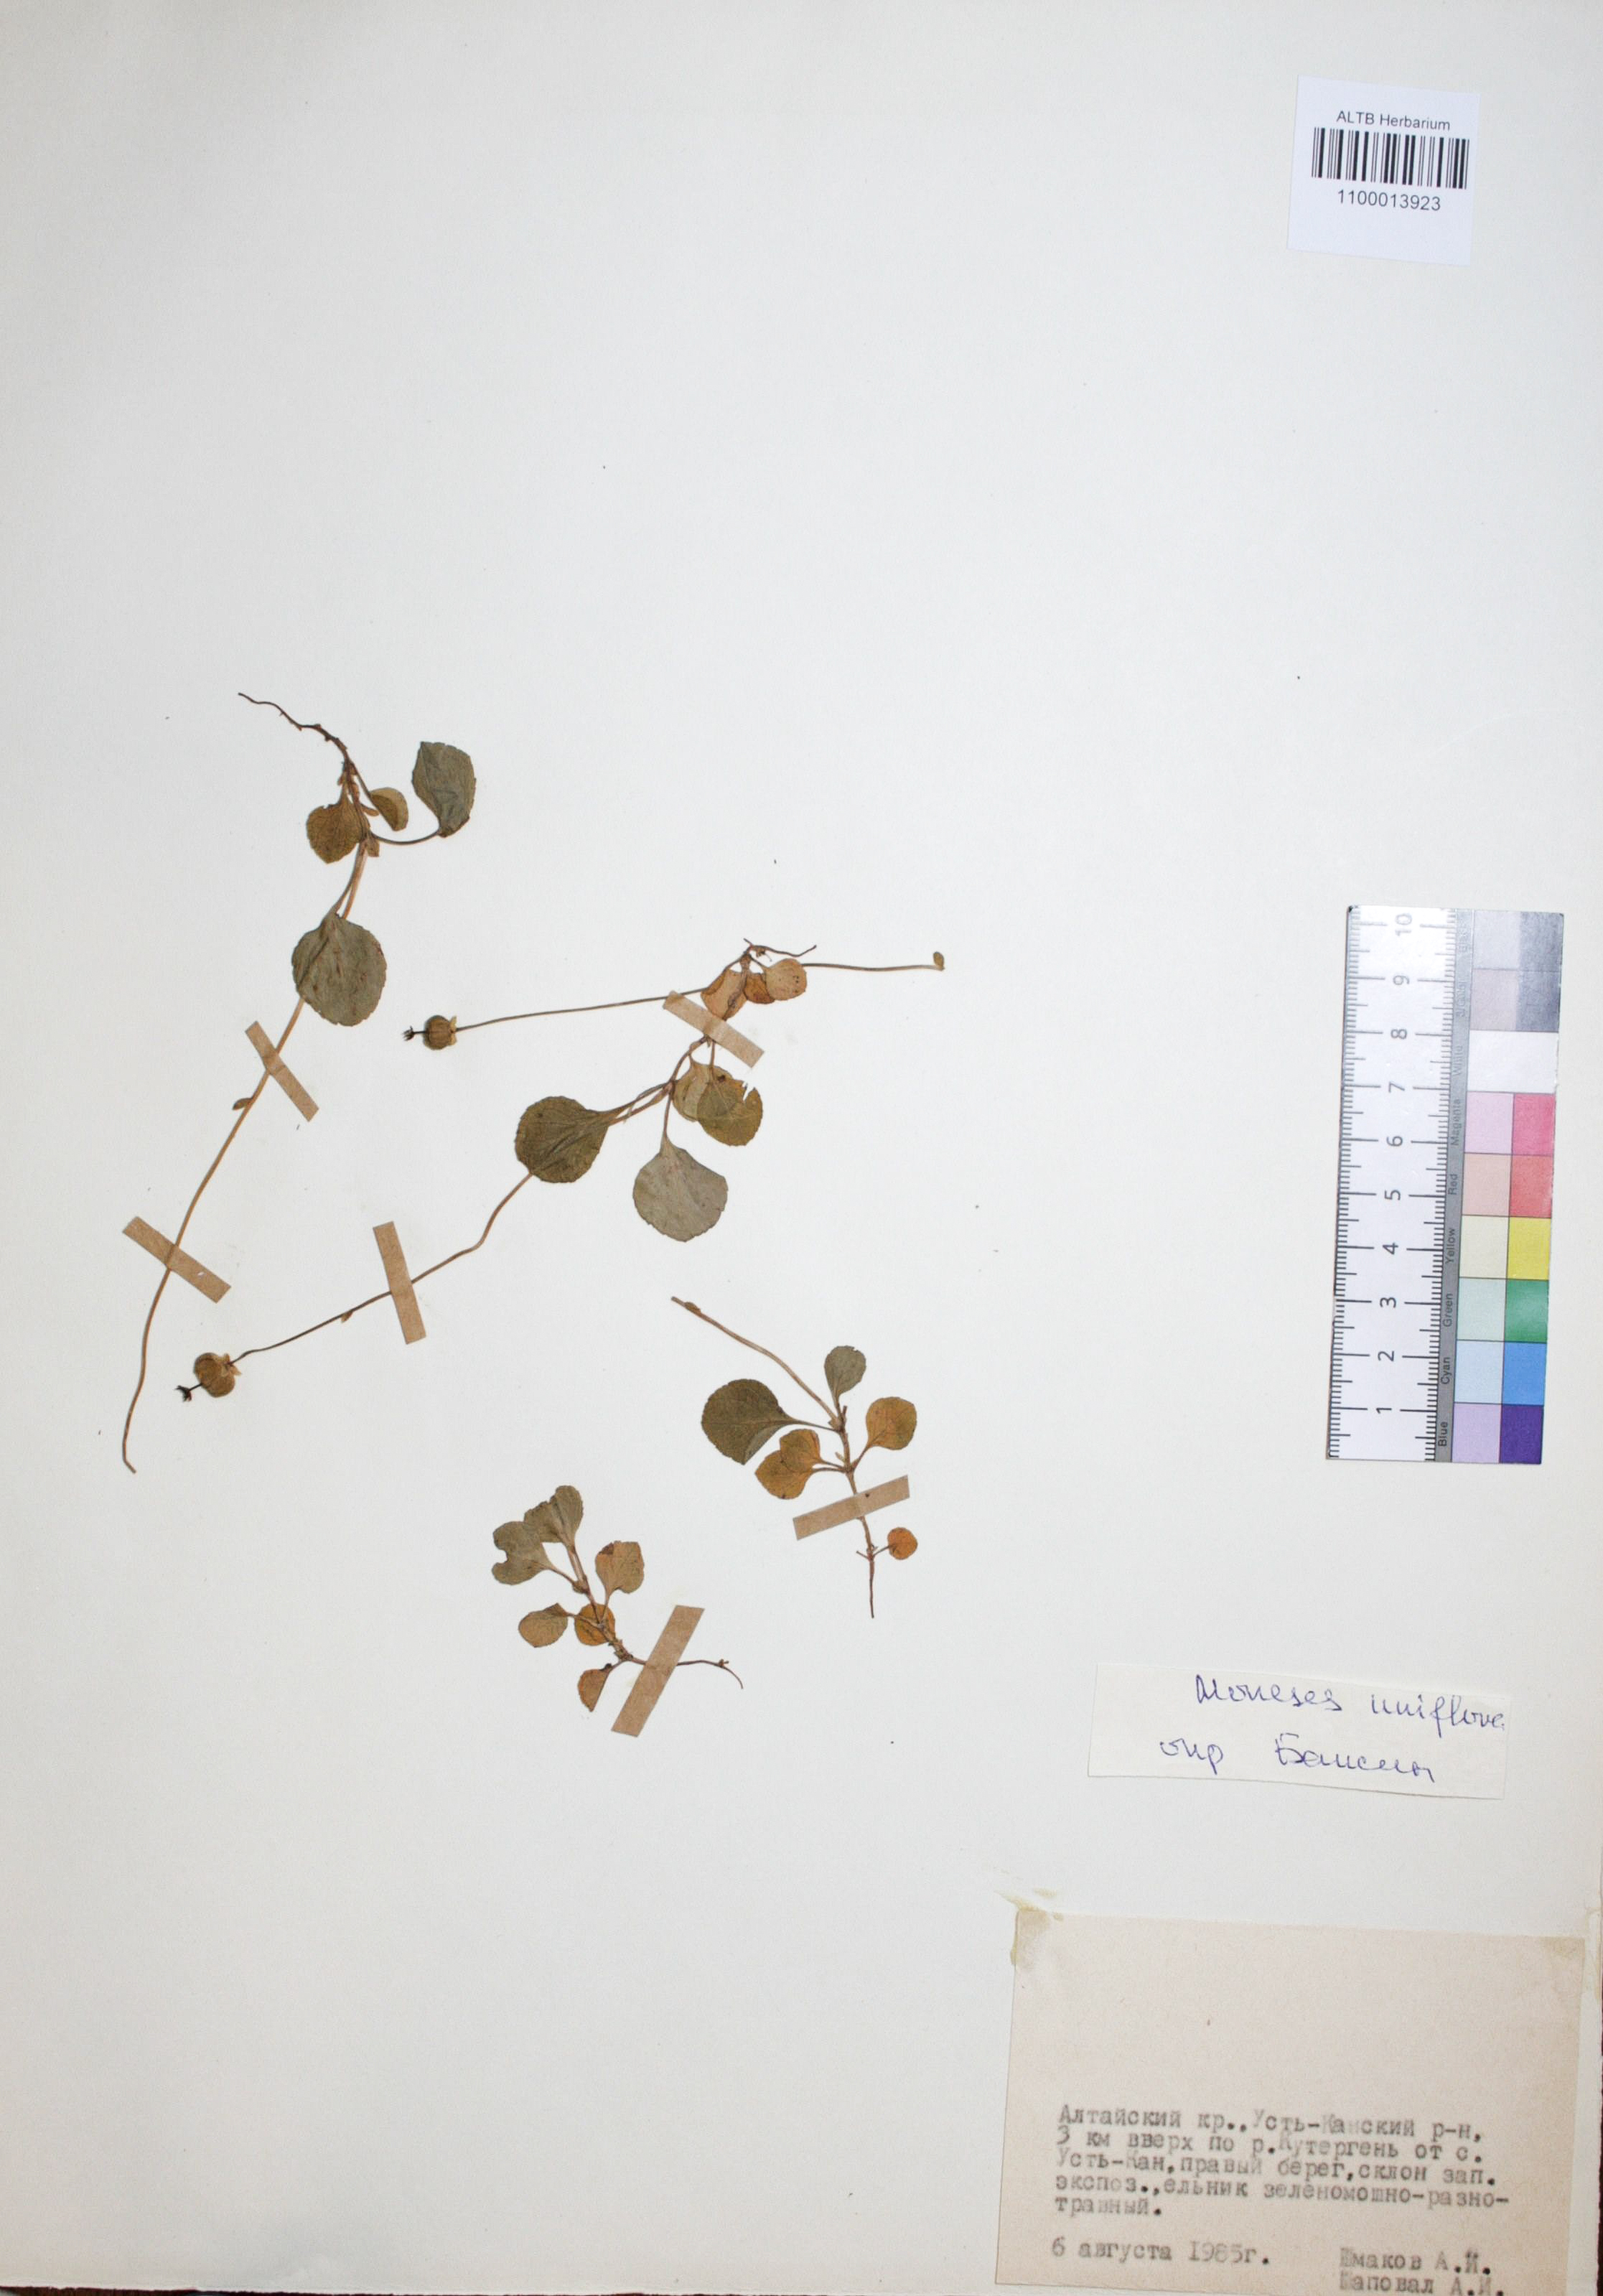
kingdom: Plantae
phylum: Tracheophyta
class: Magnoliopsida
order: Ericales
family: Ericaceae
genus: Moneses
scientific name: Moneses uniflora
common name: One-flowered wintergreen
